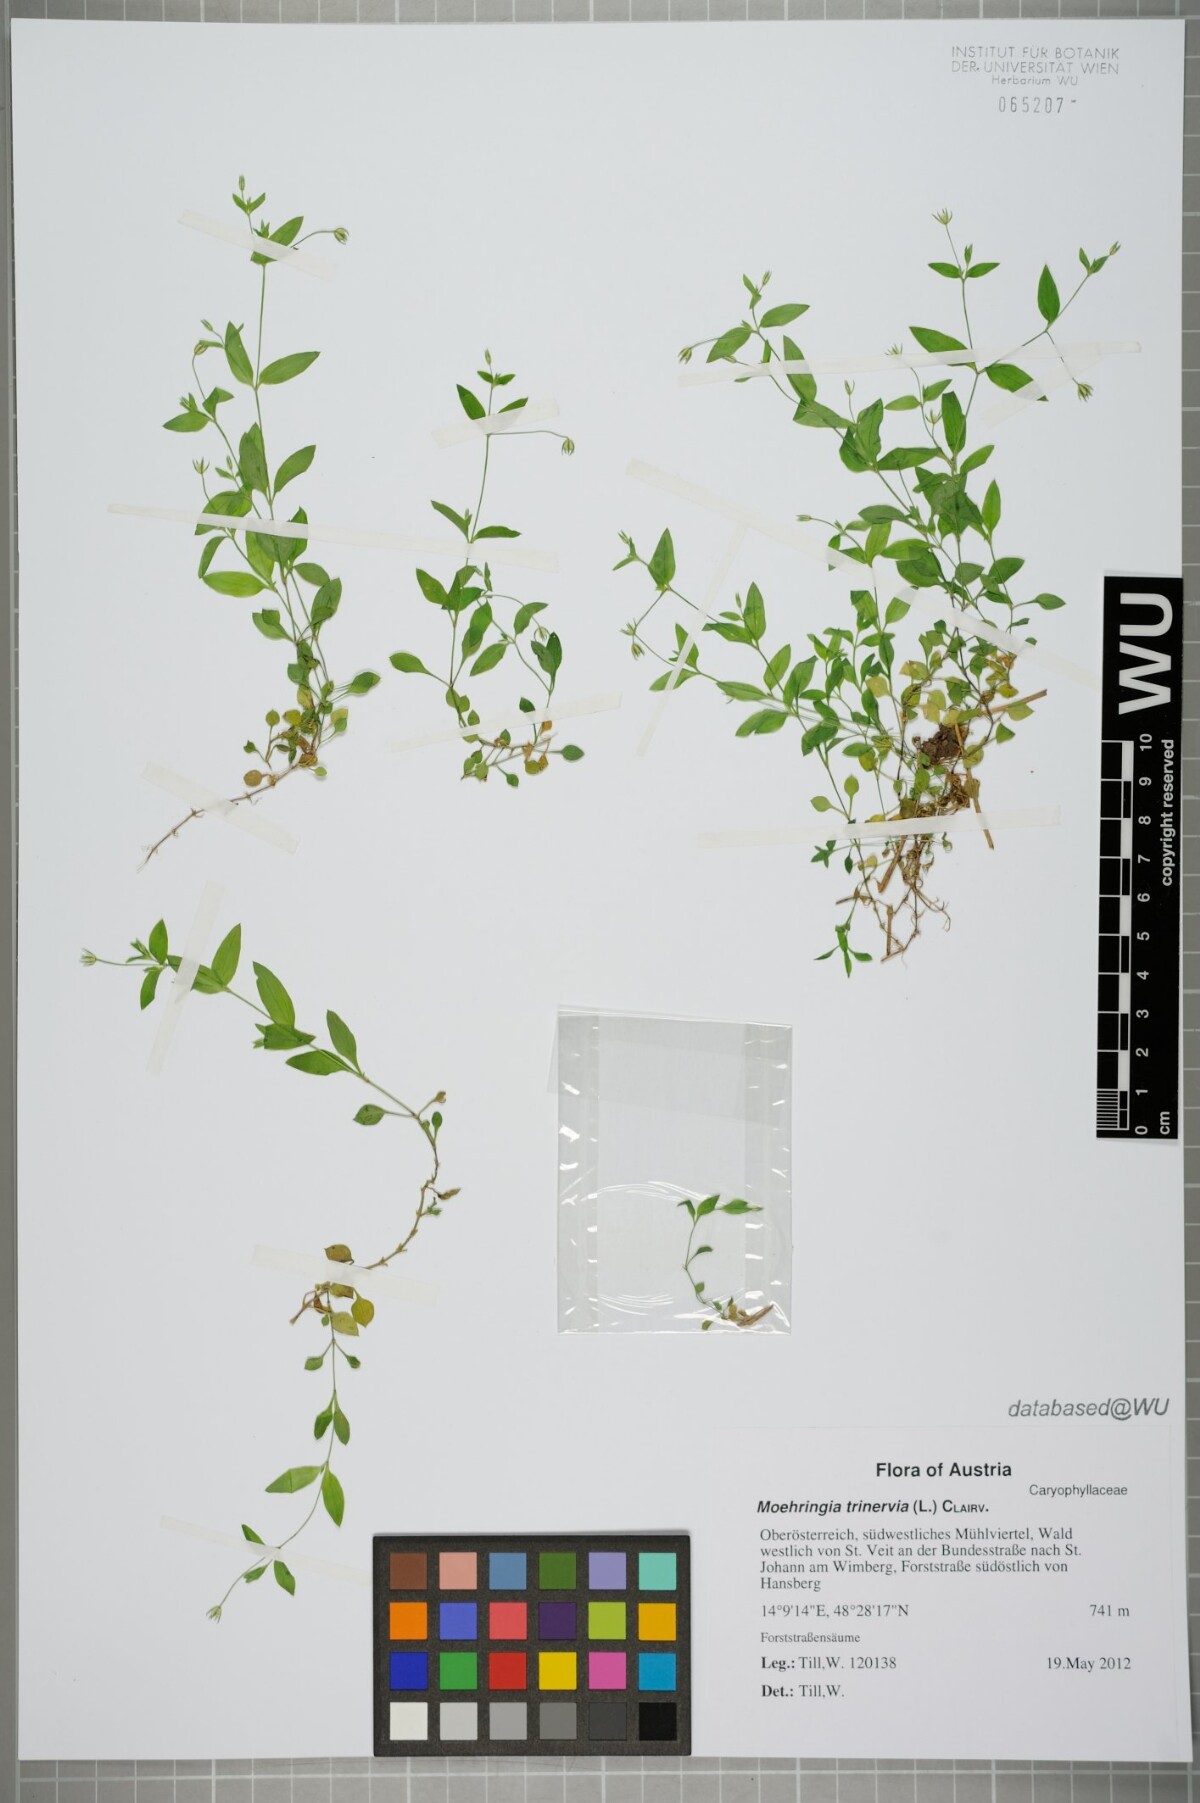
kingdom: Plantae
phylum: Tracheophyta
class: Magnoliopsida
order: Caryophyllales
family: Caryophyllaceae
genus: Moehringia
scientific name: Moehringia trinervia
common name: Three-nerved sandwort
